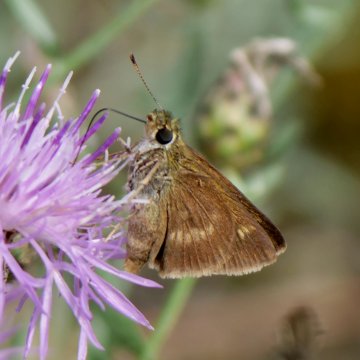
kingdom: Animalia
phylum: Arthropoda
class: Insecta
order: Lepidoptera
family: Hesperiidae
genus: Polites
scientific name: Polites egeremet
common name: Northern Broken-Dash
